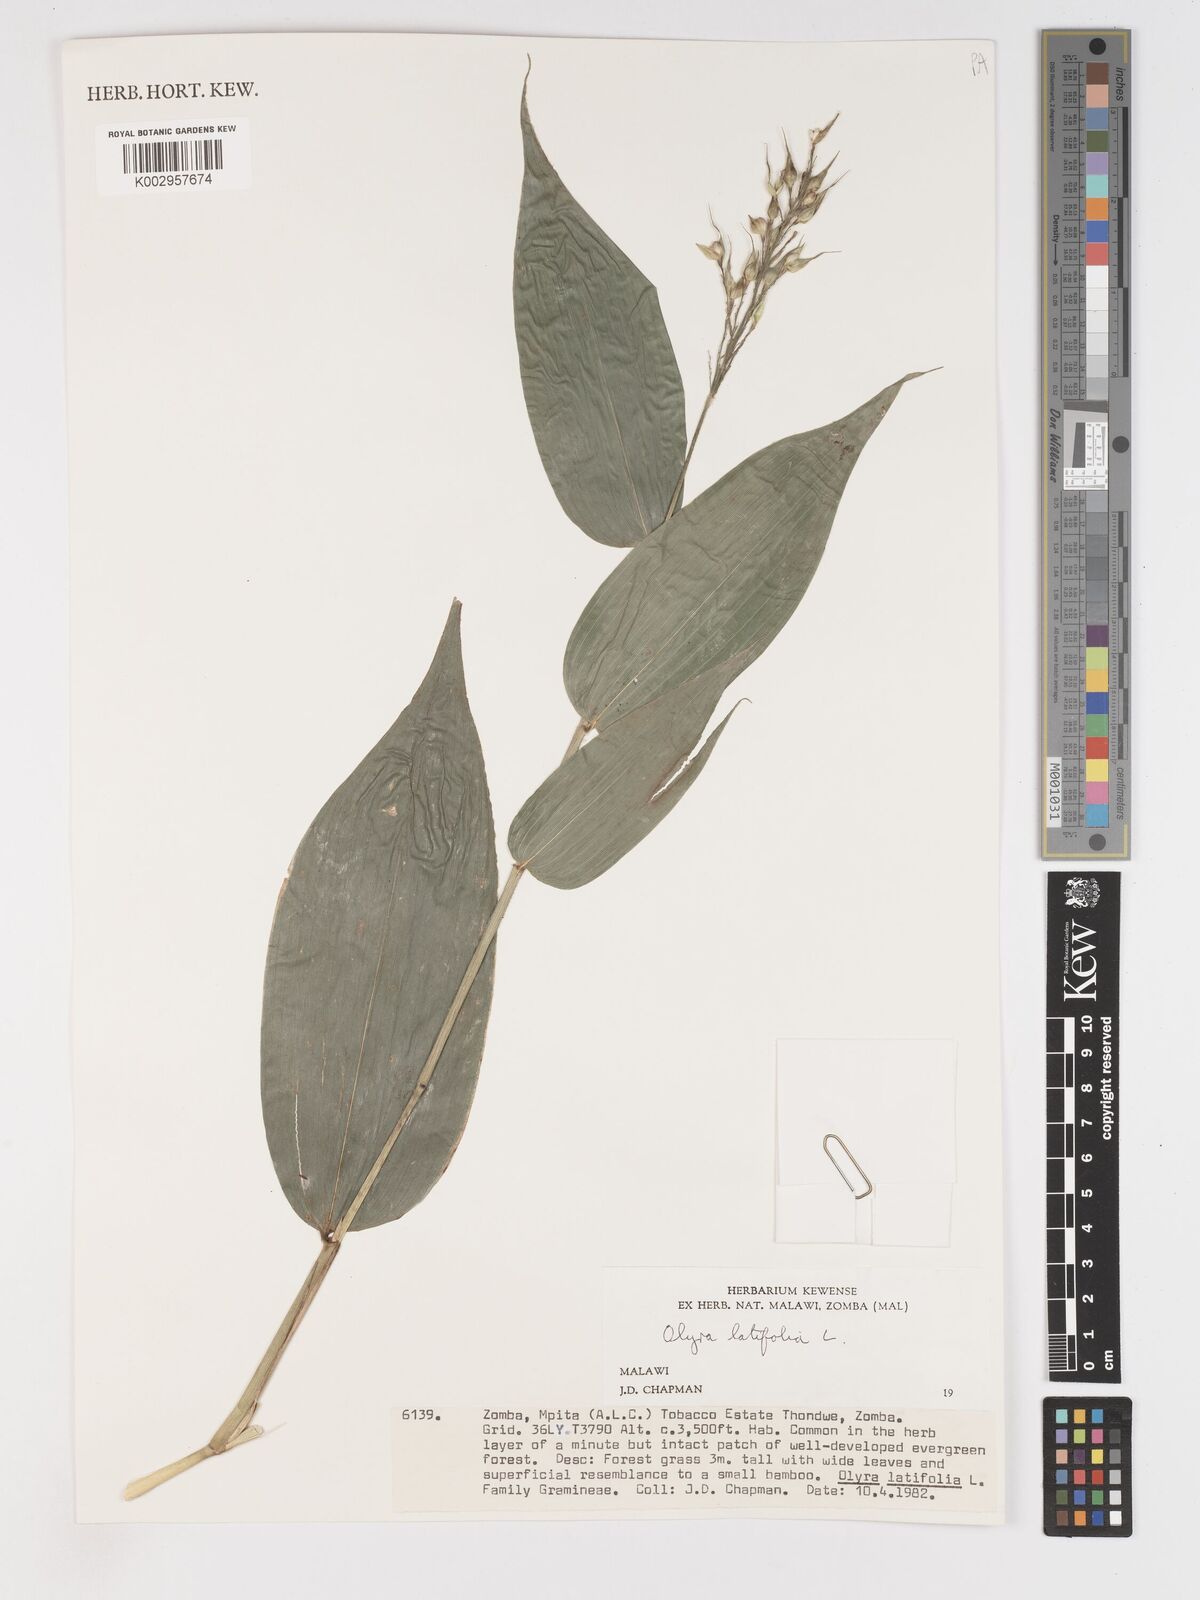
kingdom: Plantae
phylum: Tracheophyta
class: Liliopsida
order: Poales
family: Poaceae
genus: Olyra
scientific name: Olyra latifolia
